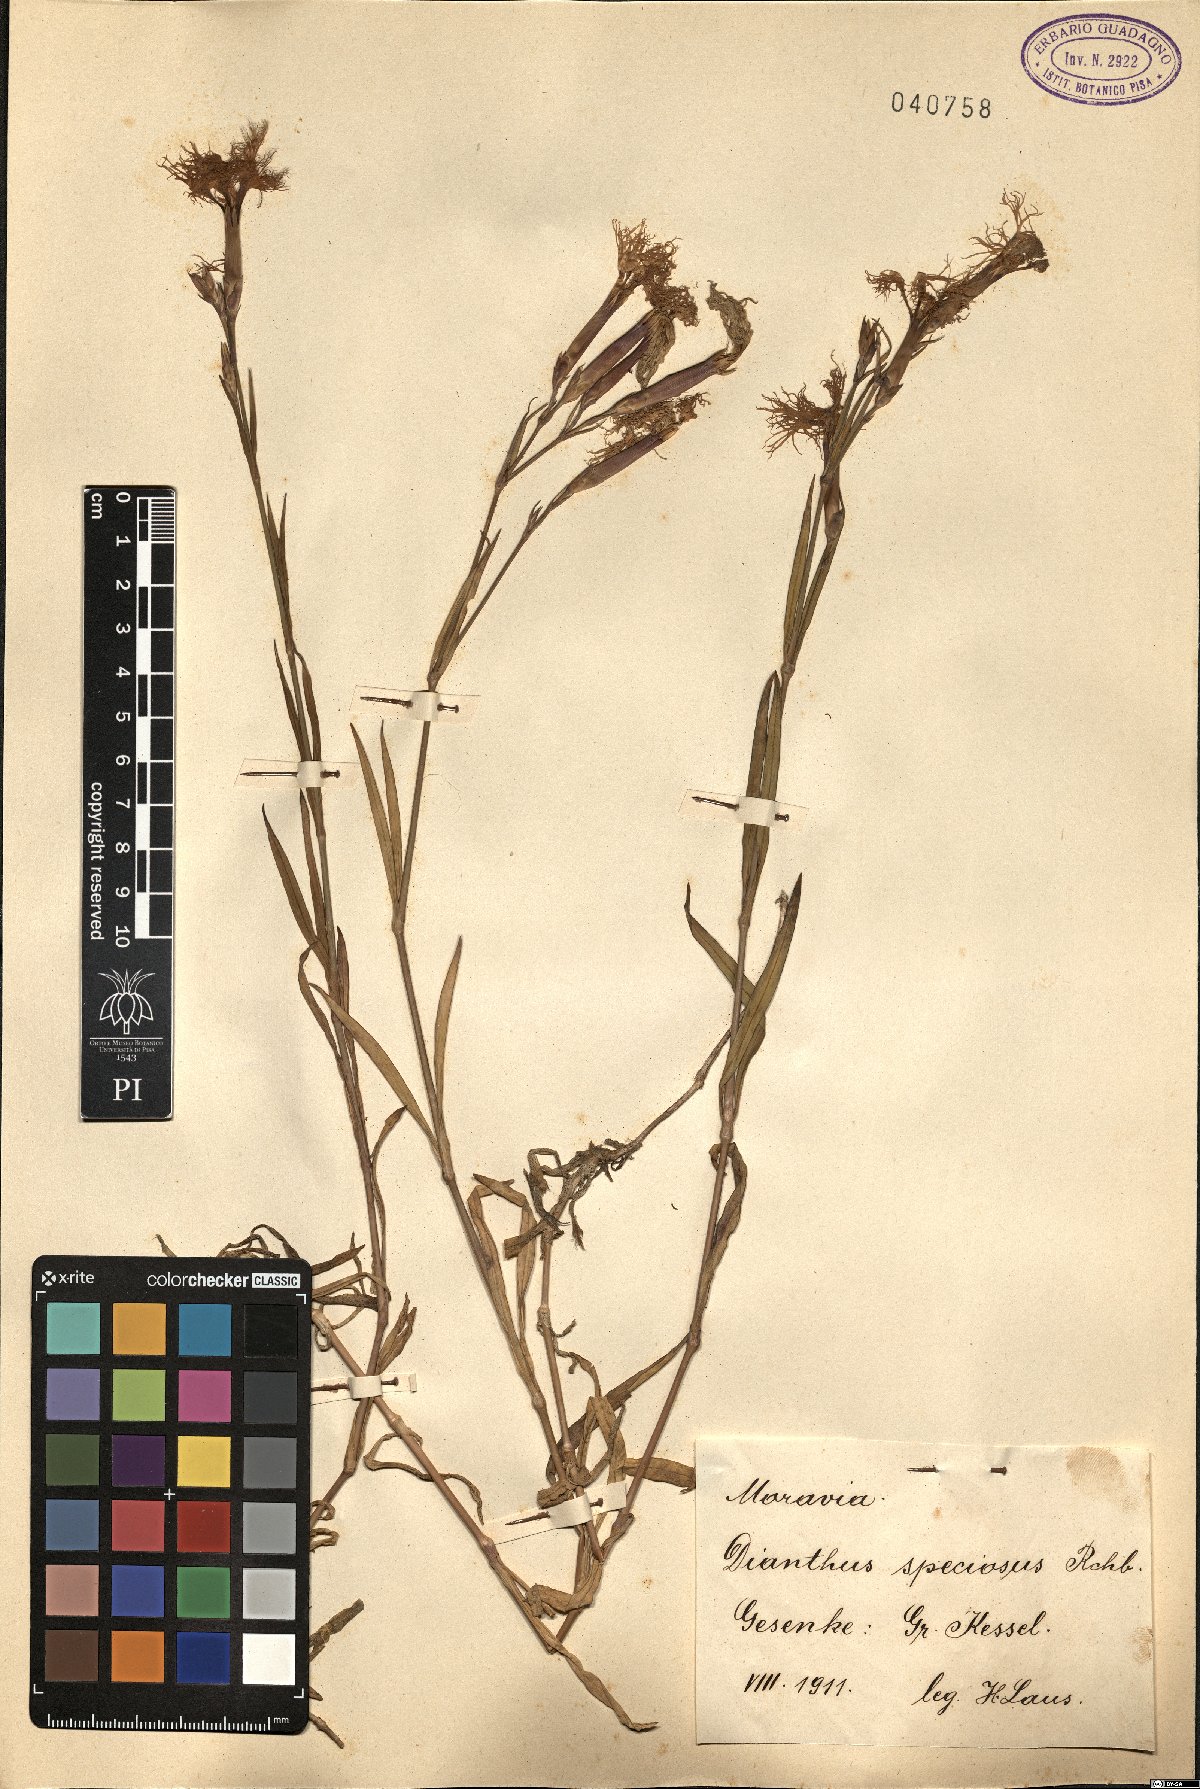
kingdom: Plantae
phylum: Tracheophyta
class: Magnoliopsida
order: Caryophyllales
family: Caryophyllaceae
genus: Dianthus
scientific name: Dianthus superbus
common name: Fringed pink
